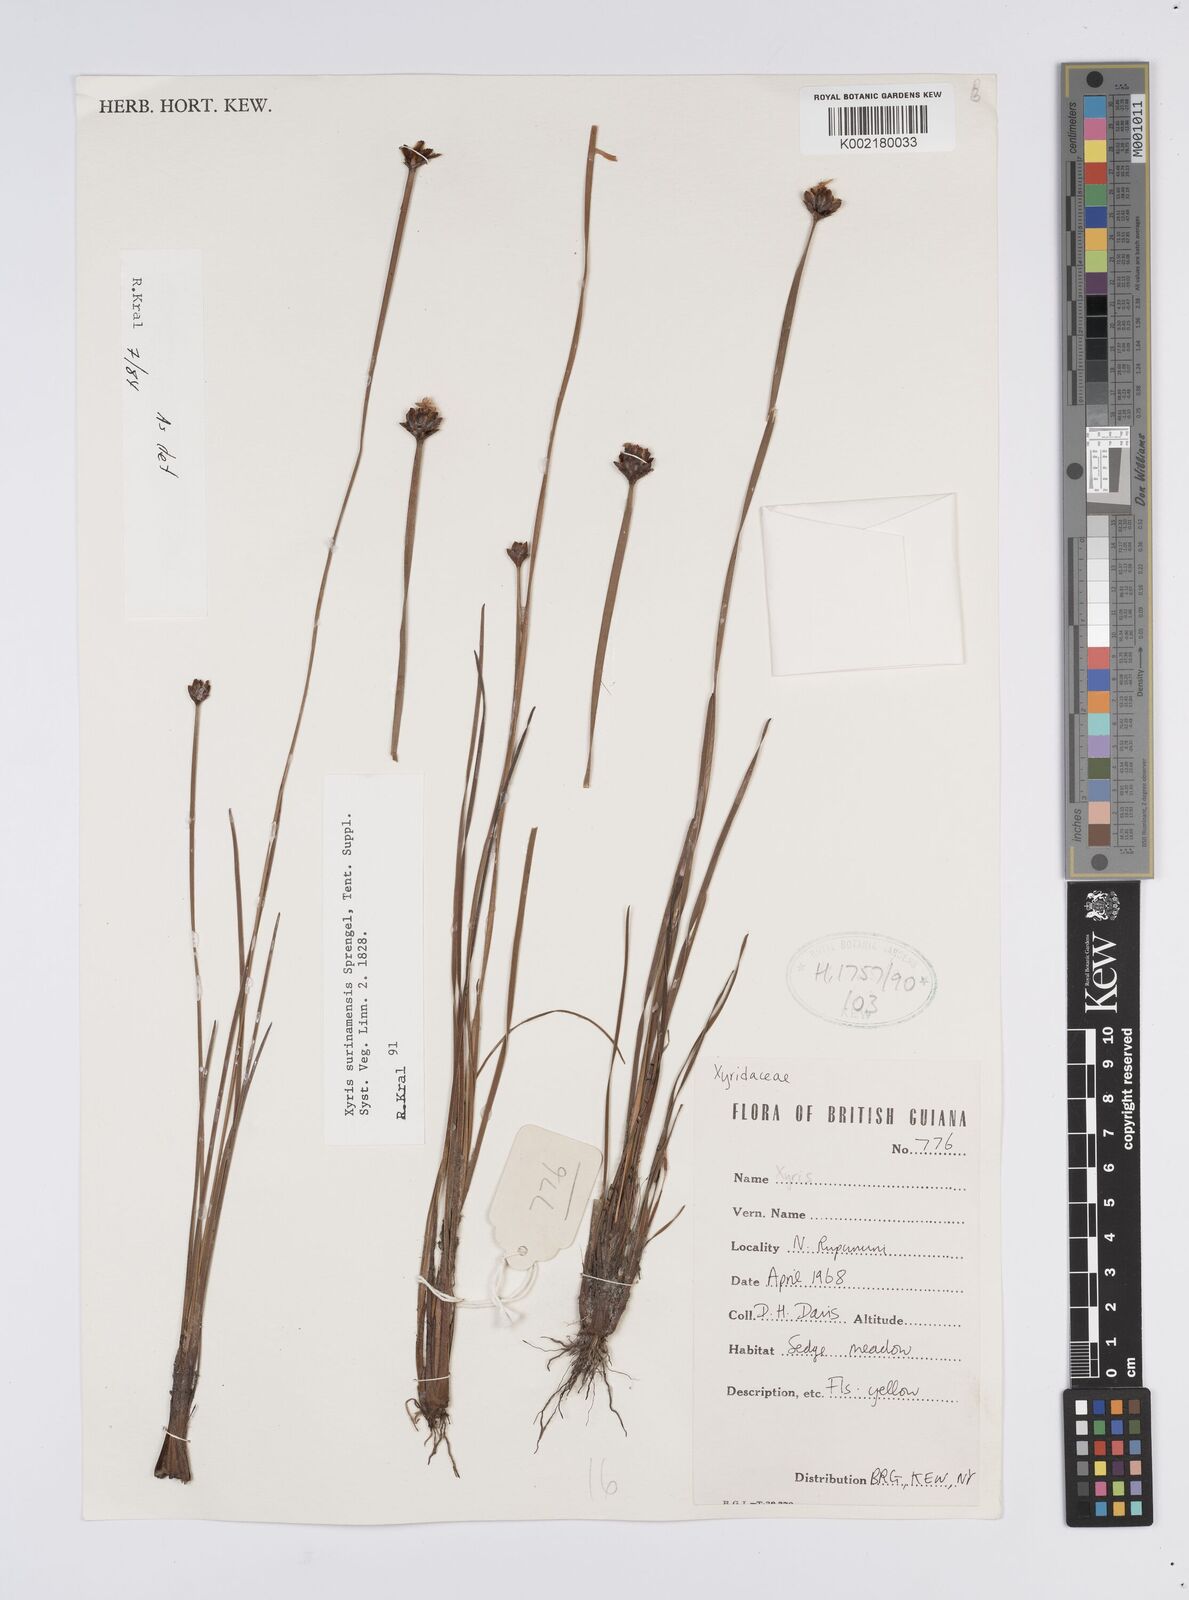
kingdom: Plantae
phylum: Tracheophyta
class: Liliopsida
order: Poales
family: Xyridaceae
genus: Xyris
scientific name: Xyris surinamensis
